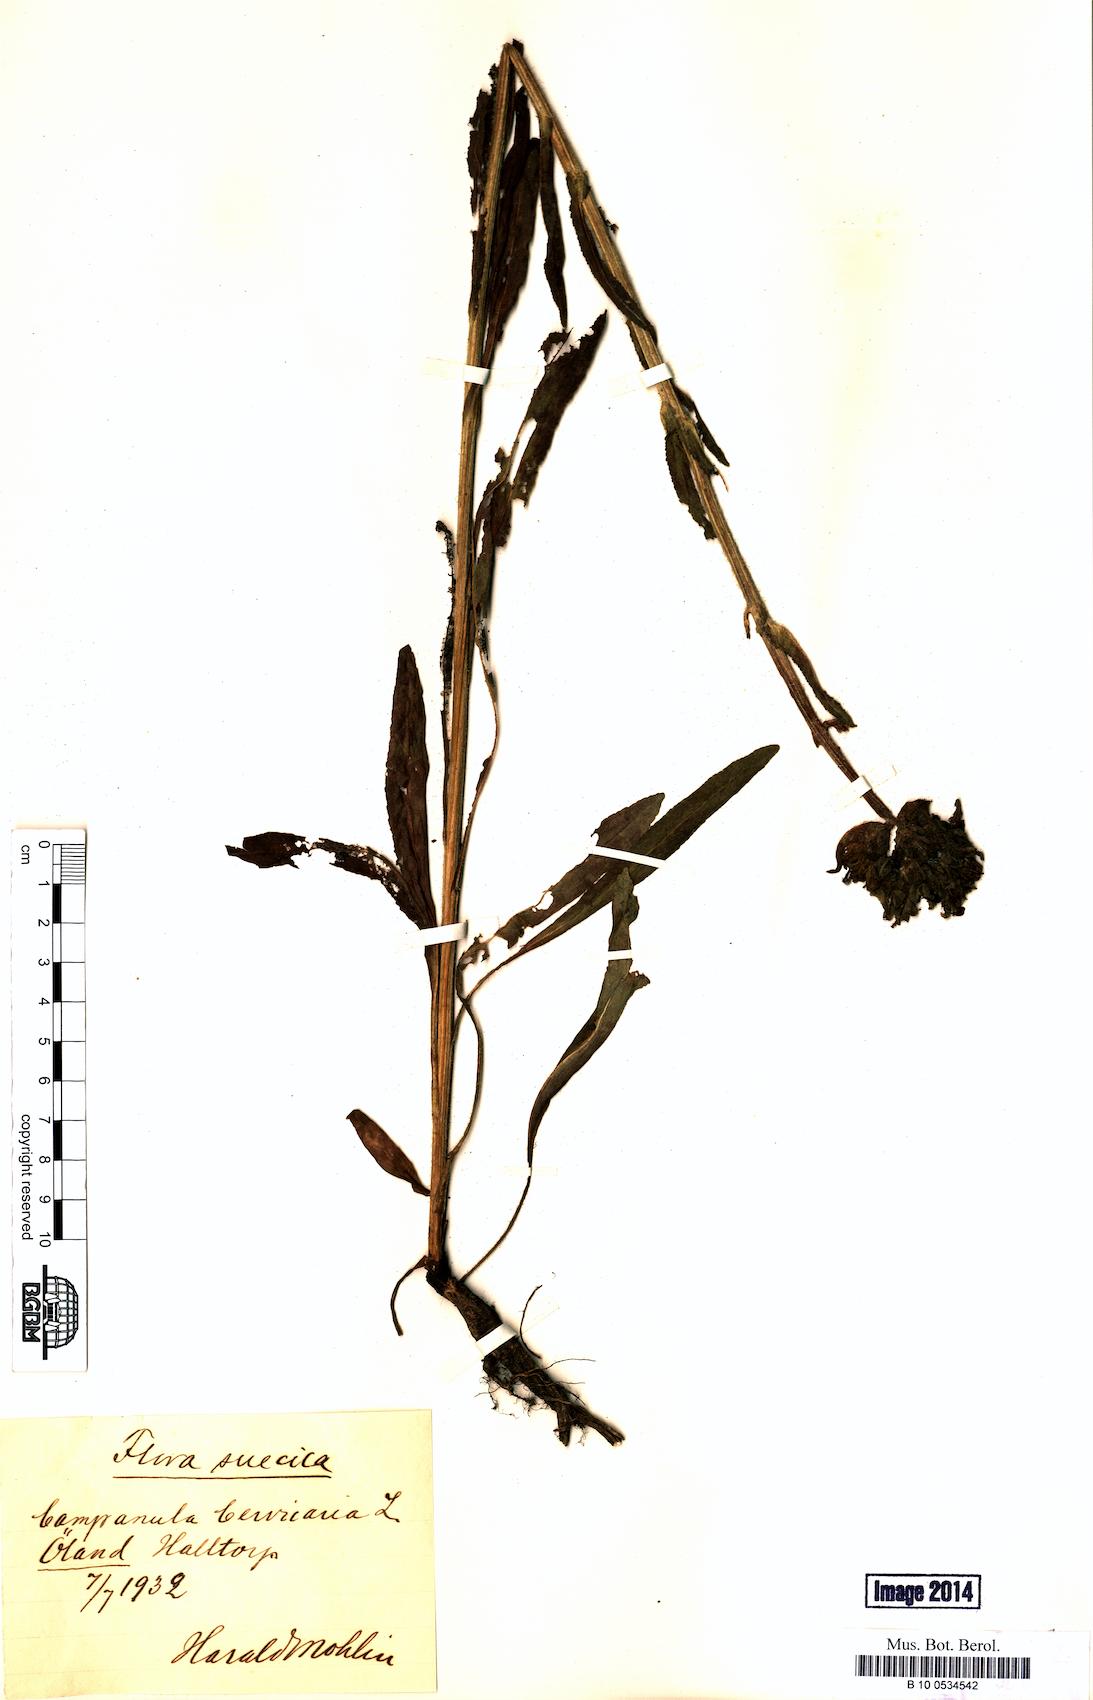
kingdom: Plantae
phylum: Tracheophyta
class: Magnoliopsida
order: Asterales
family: Campanulaceae
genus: Campanula
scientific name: Campanula cervicaria
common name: Bristly bellflower
